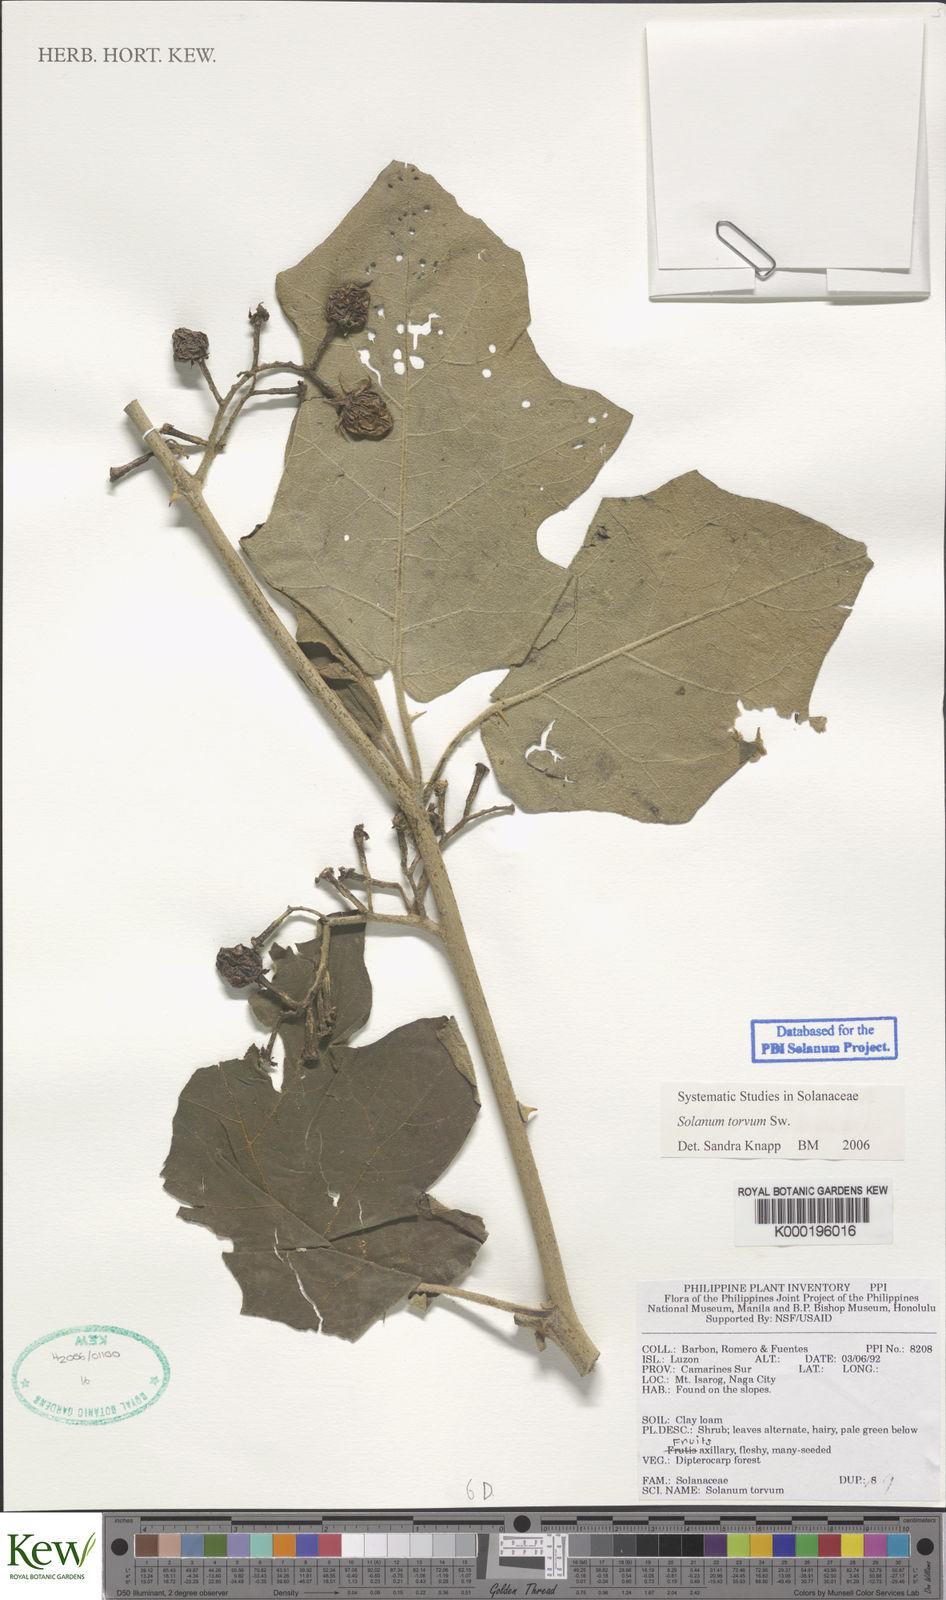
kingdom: Plantae
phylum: Tracheophyta
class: Magnoliopsida
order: Solanales
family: Solanaceae
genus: Solanum
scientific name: Solanum torvum
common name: Turkey berry
